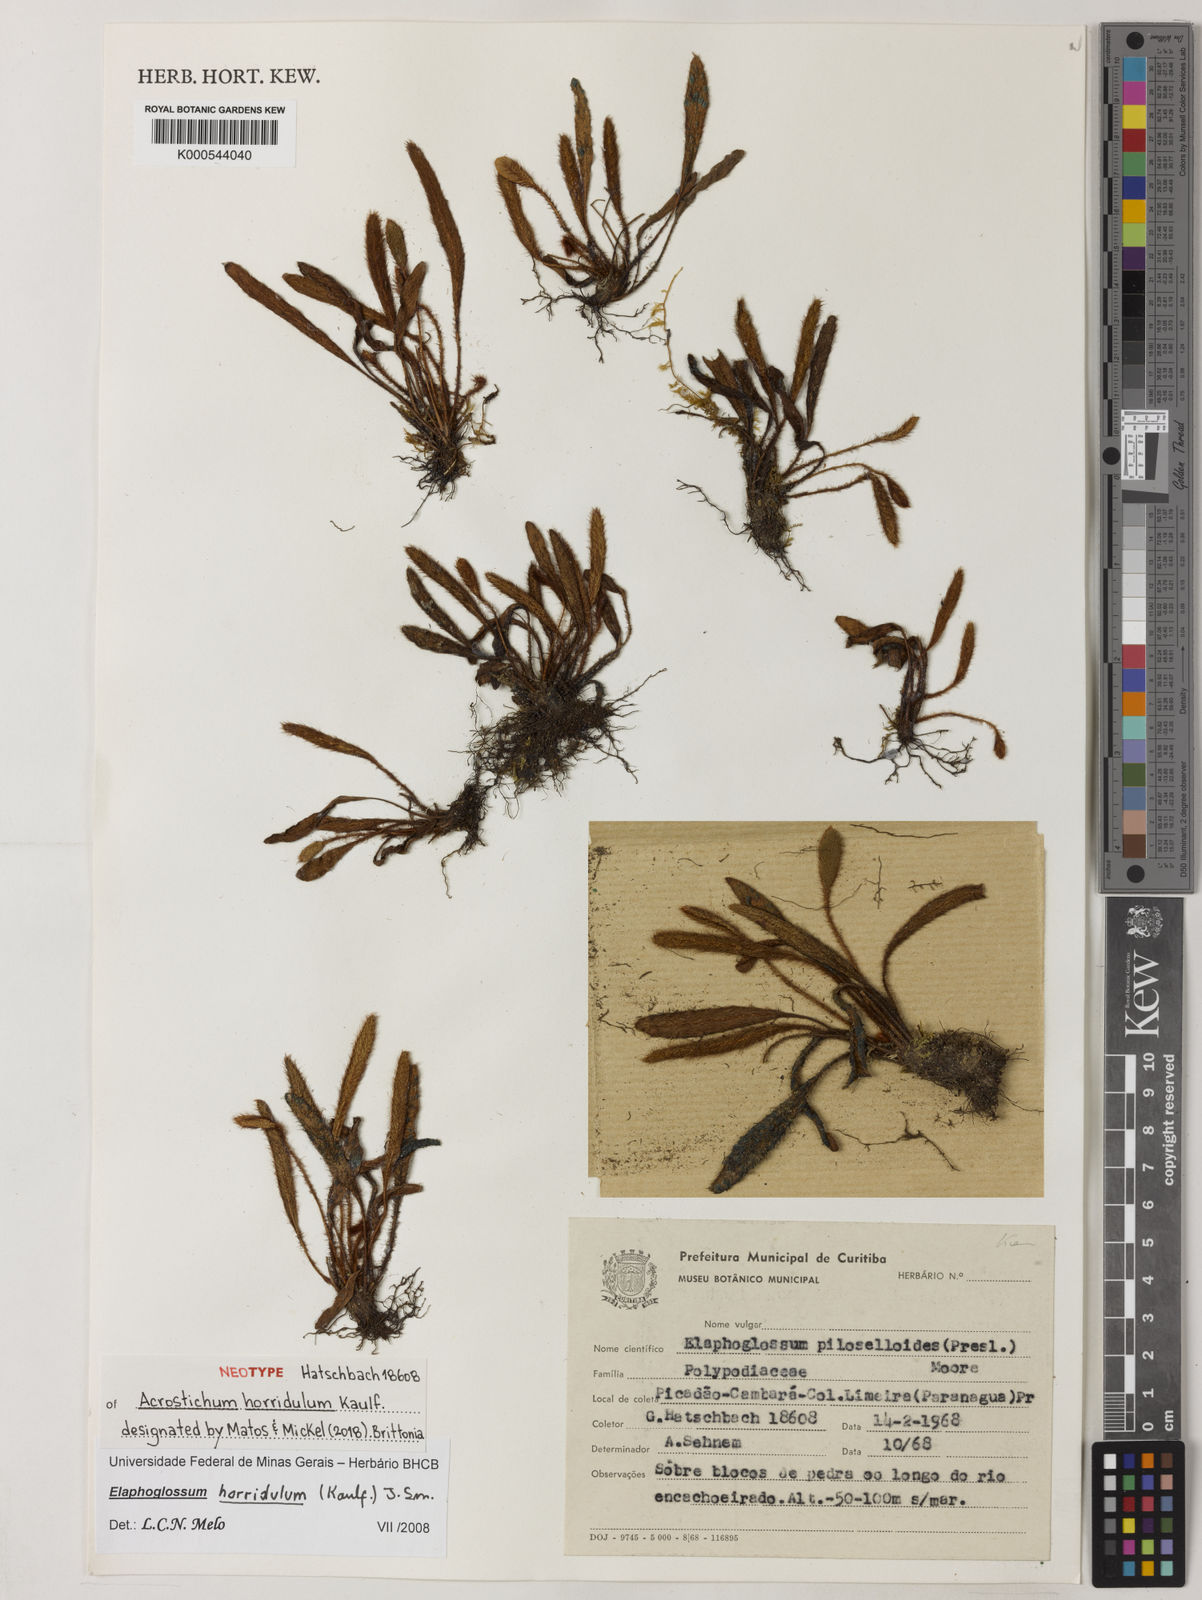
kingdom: Plantae
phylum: Tracheophyta
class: Polypodiopsida
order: Polypodiales
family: Dryopteridaceae
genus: Elaphoglossum
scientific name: Elaphoglossum horridulum
